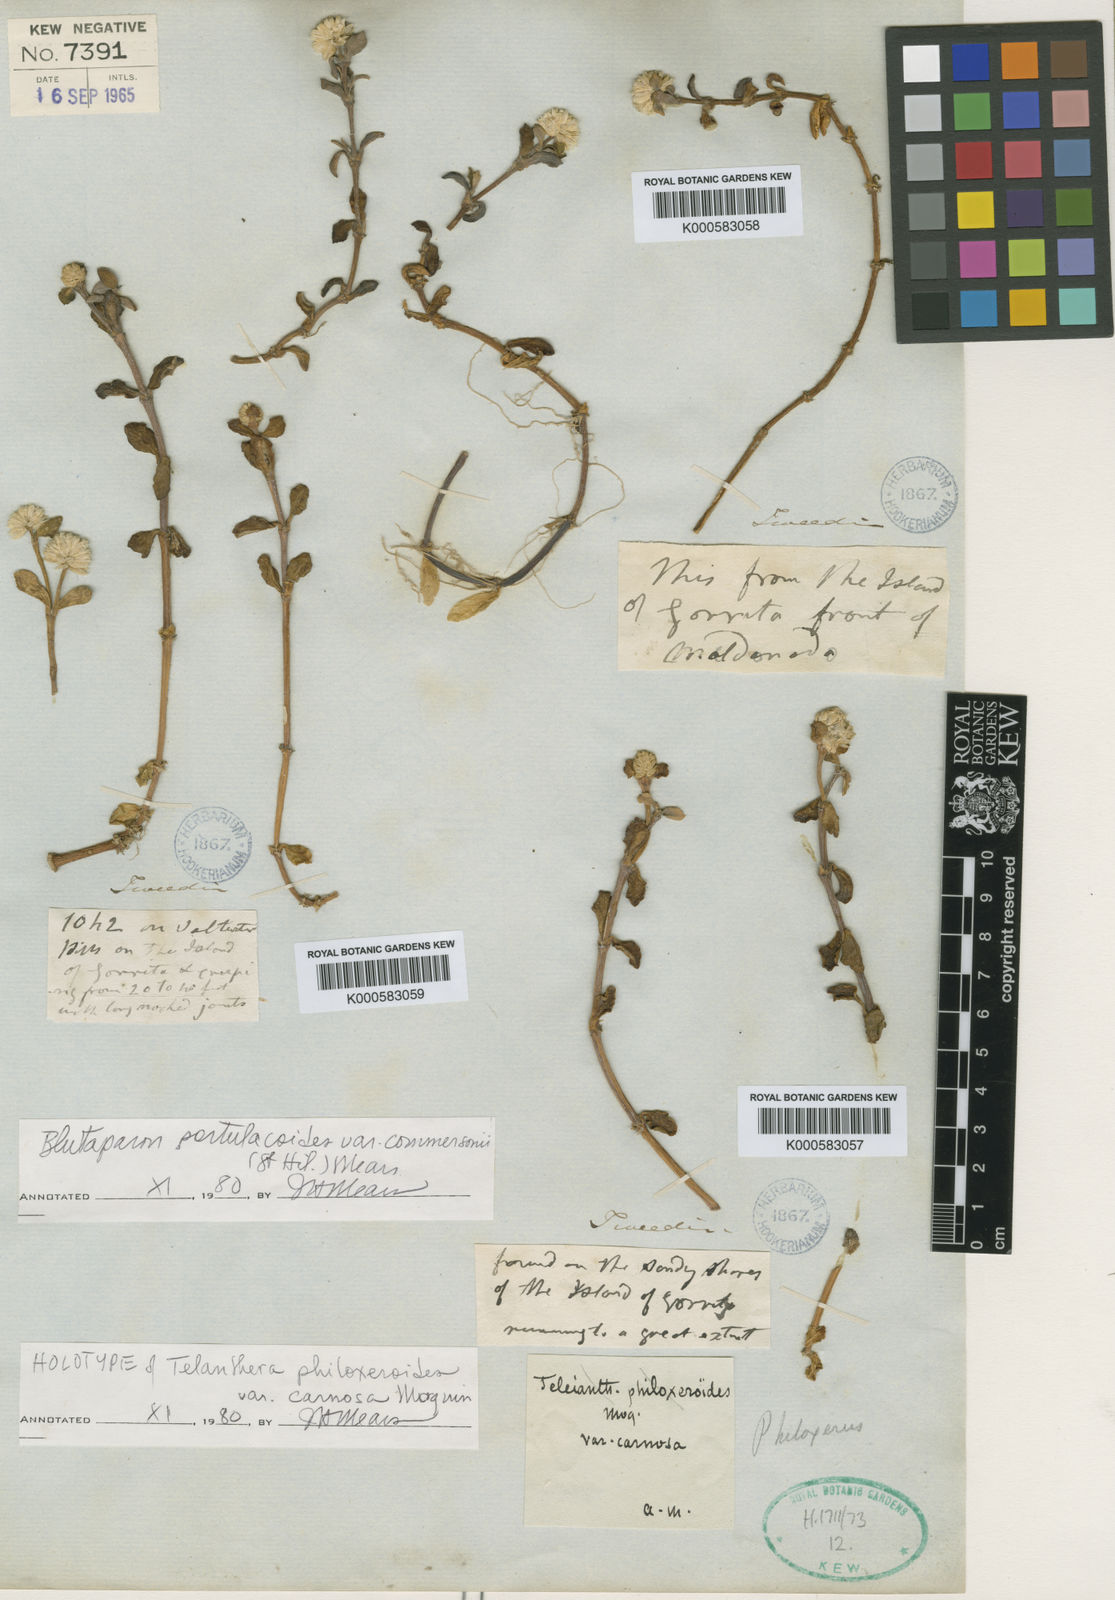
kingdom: Plantae
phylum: Tracheophyta
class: Magnoliopsida
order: Caryophyllales
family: Amaranthaceae
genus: Gomphrena
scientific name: Gomphrena portulacoides
